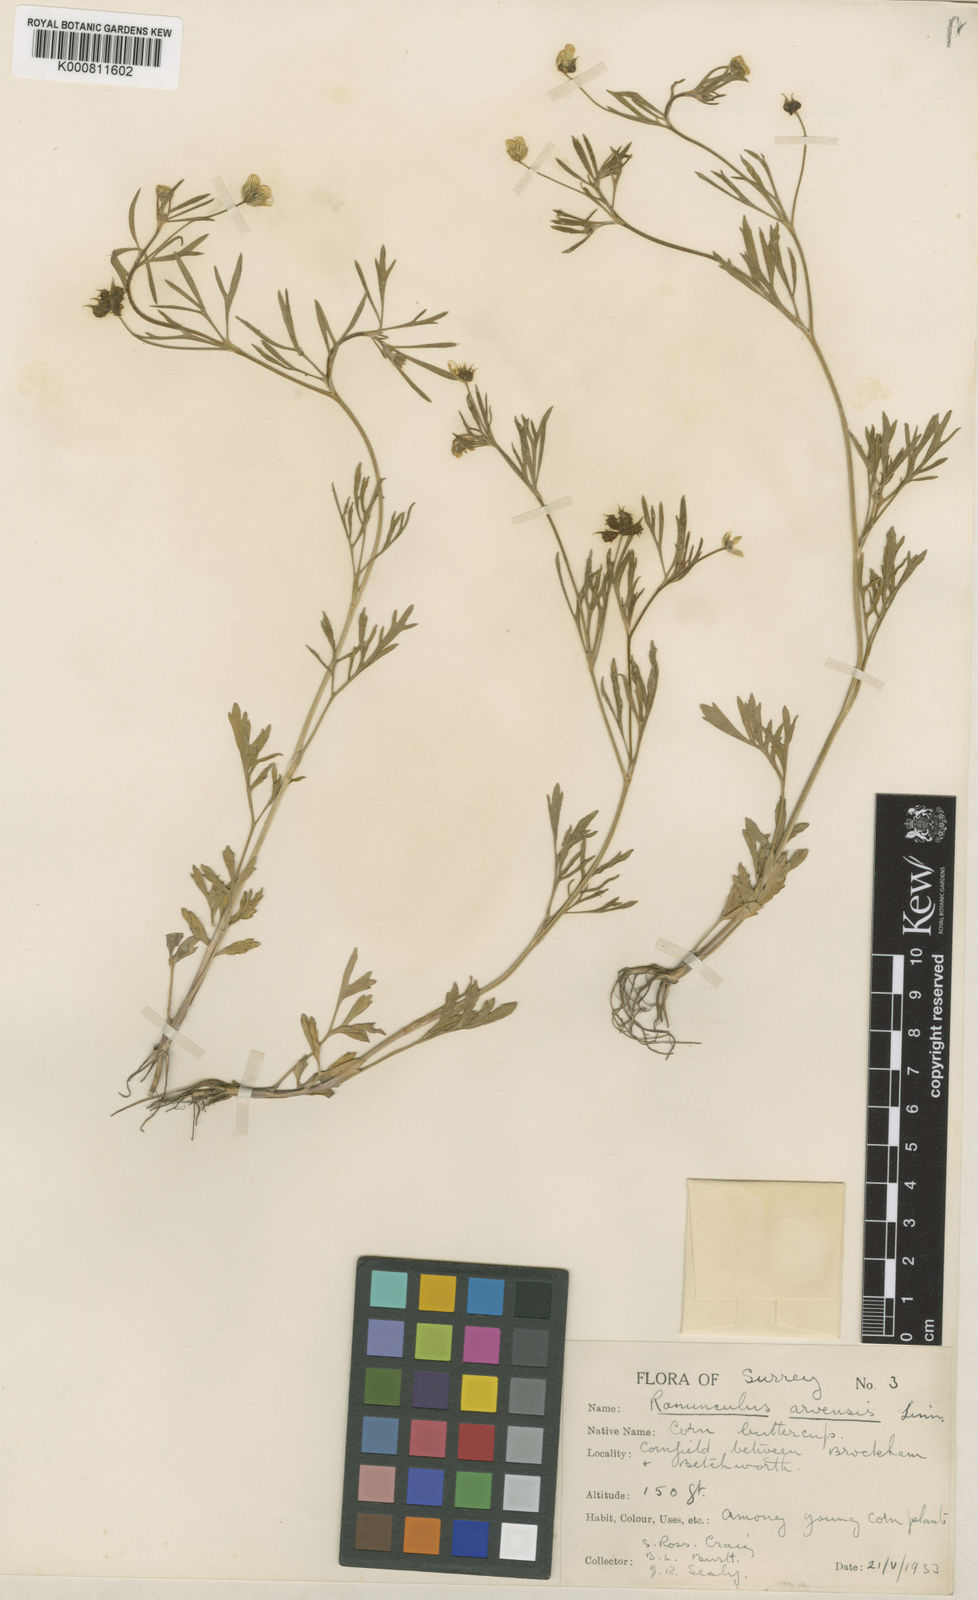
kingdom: Plantae
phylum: Tracheophyta
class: Magnoliopsida
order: Ranunculales
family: Ranunculaceae
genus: Ranunculus
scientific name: Ranunculus arvensis
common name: Corn buttercup
